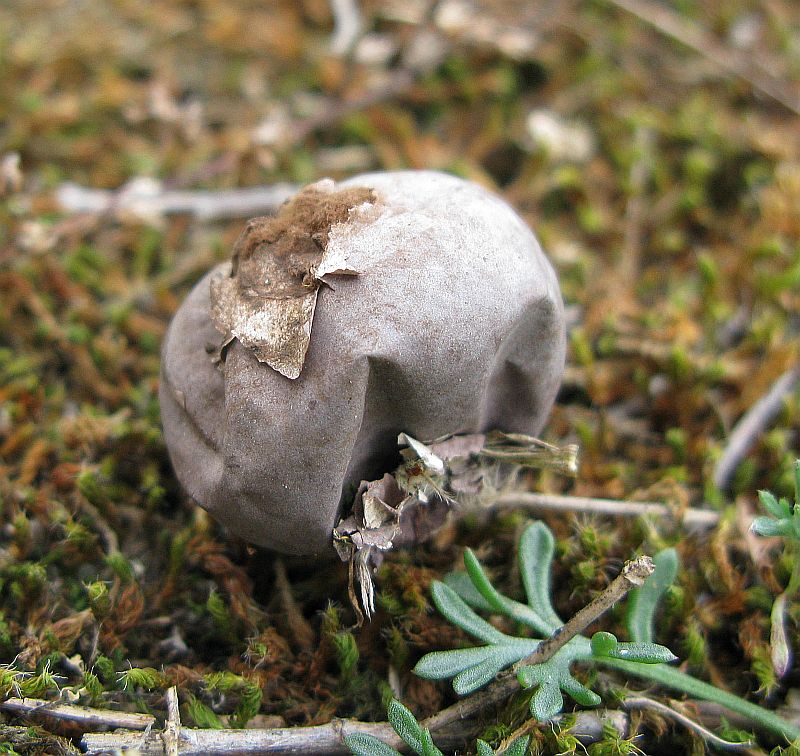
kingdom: Fungi
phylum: Basidiomycota
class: Agaricomycetes
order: Agaricales
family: Lycoperdaceae
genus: Bovista
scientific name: Bovista plumbea
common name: blygrå bovist
